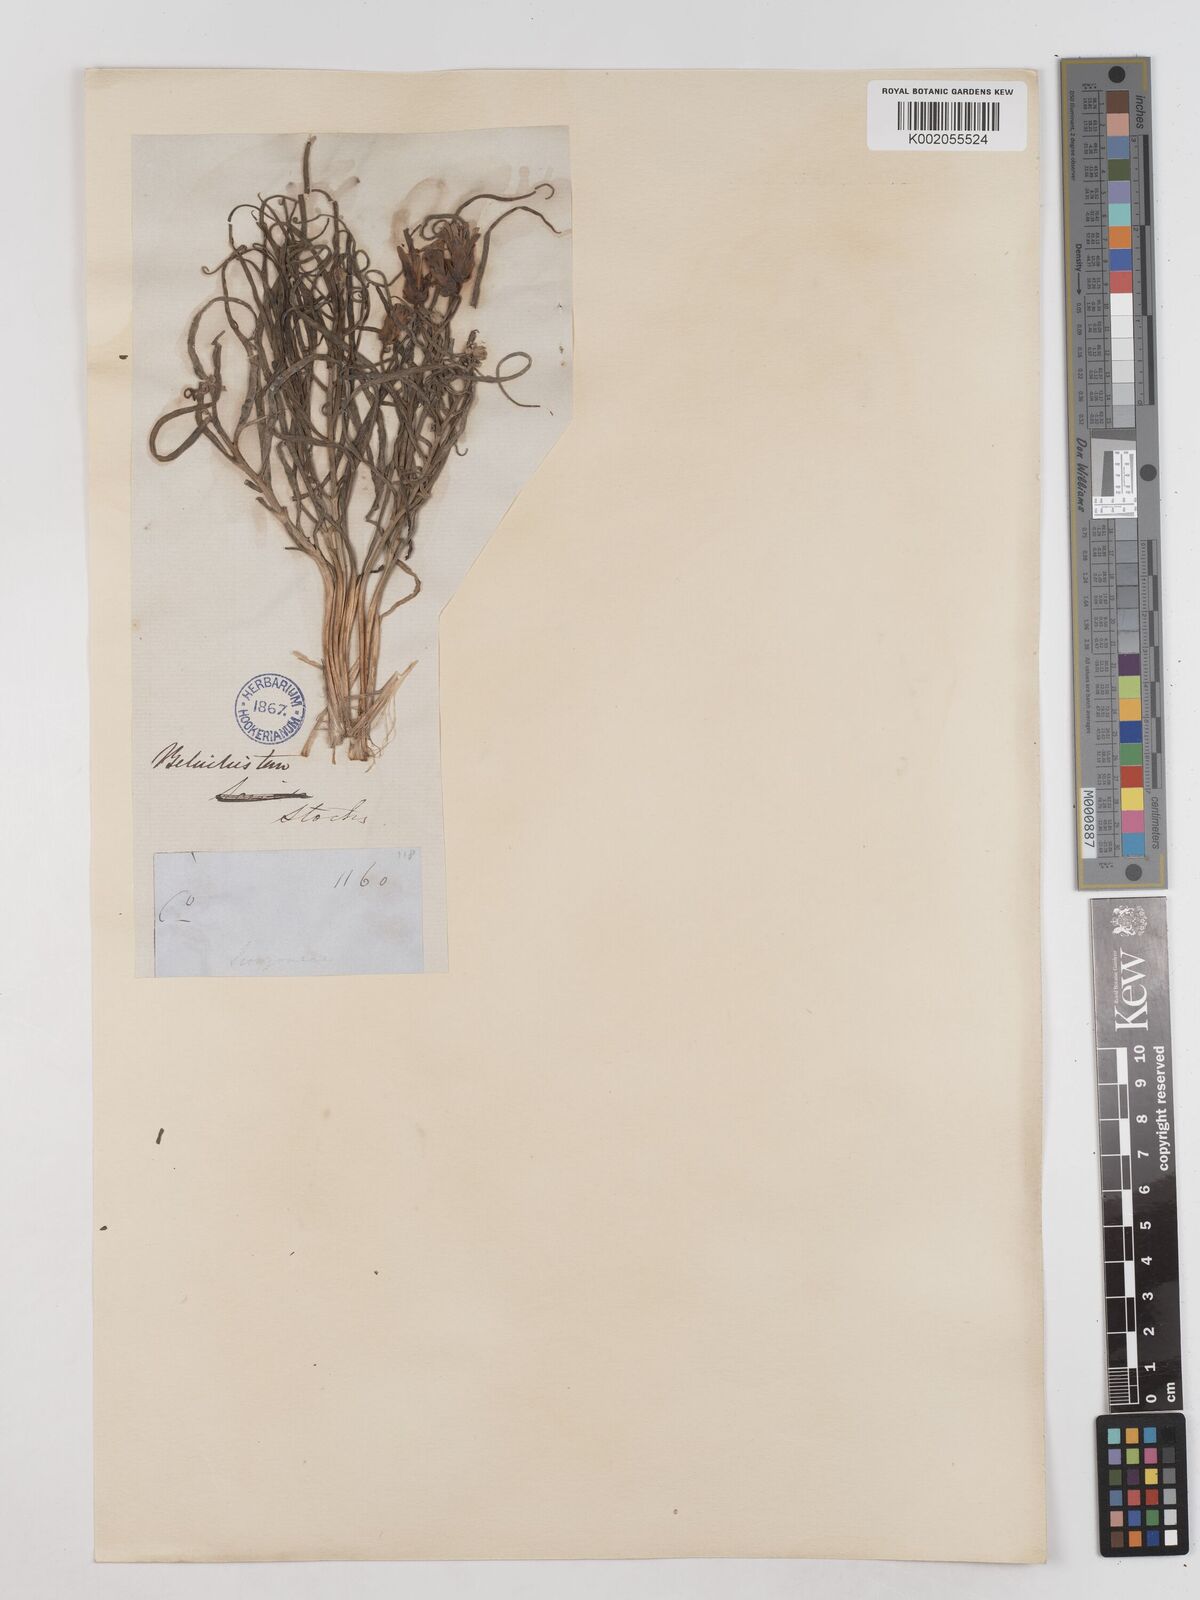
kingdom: Plantae
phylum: Tracheophyta
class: Magnoliopsida
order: Asterales
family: Asteraceae
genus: Takhtajaniantha
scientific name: Takhtajaniantha pusilla
